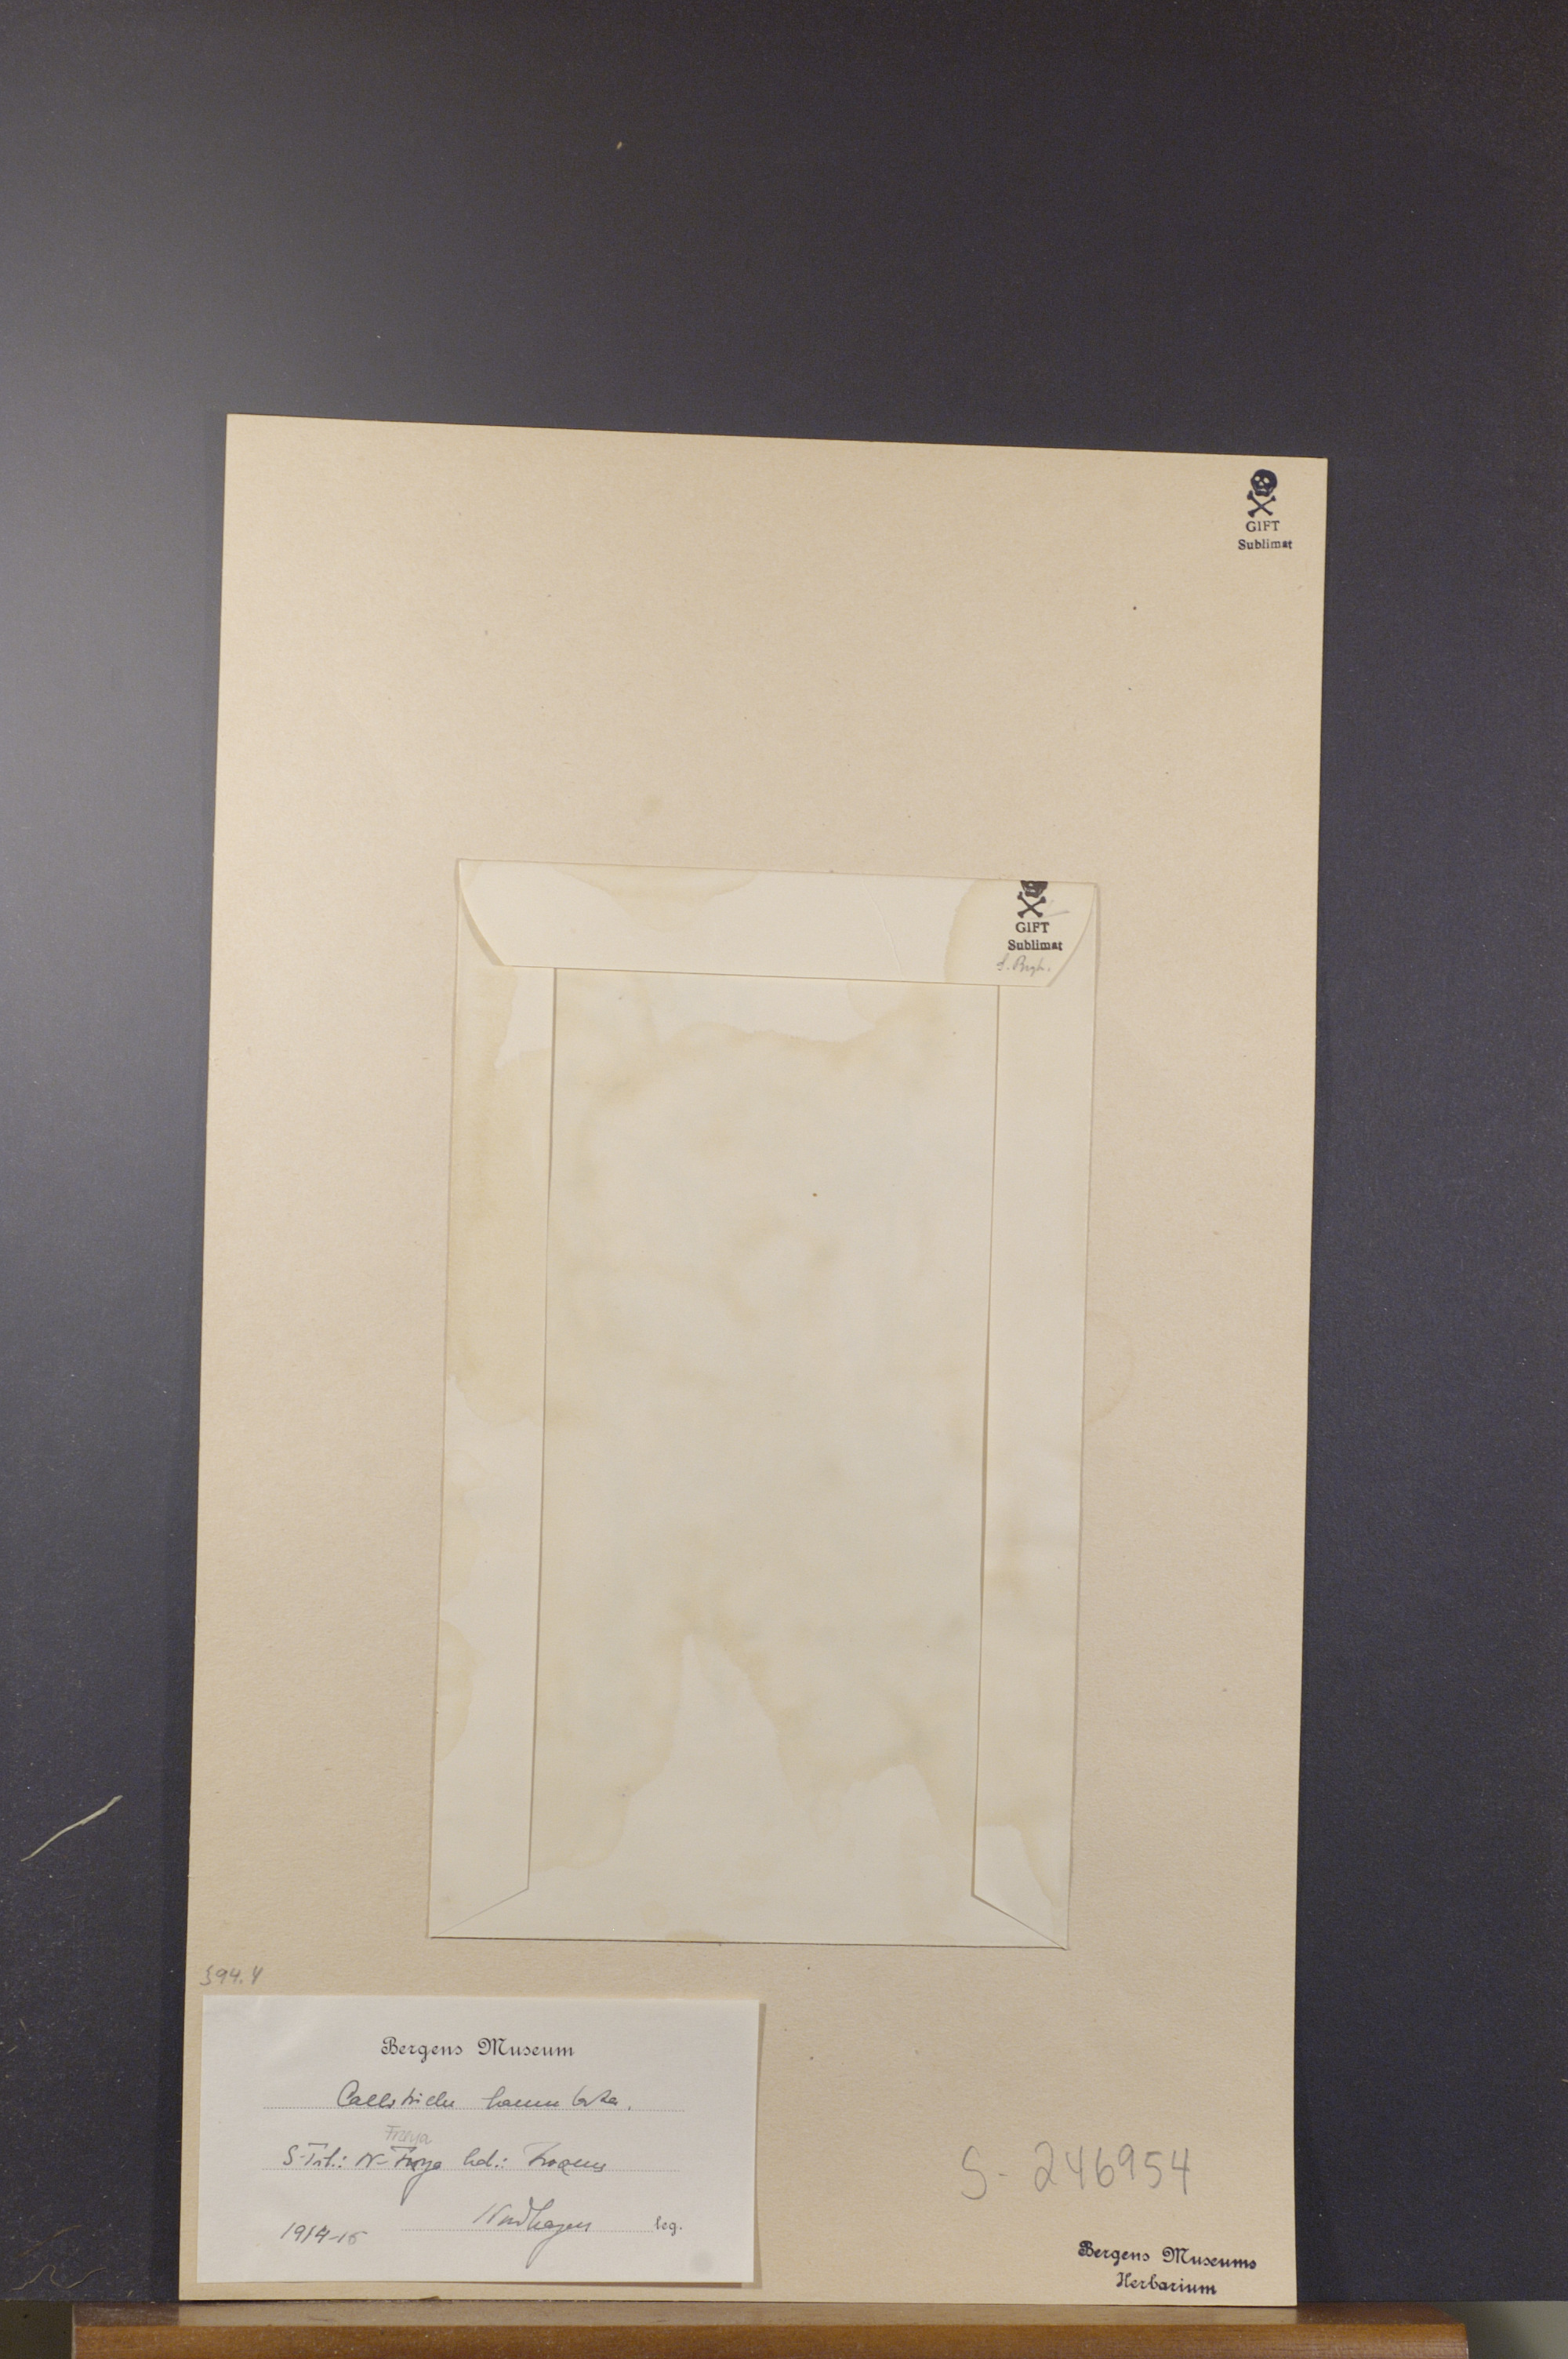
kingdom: Plantae
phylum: Tracheophyta
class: Magnoliopsida
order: Lamiales
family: Plantaginaceae
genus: Callitriche
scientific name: Callitriche hamulata
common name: Intermediate water-starwort
